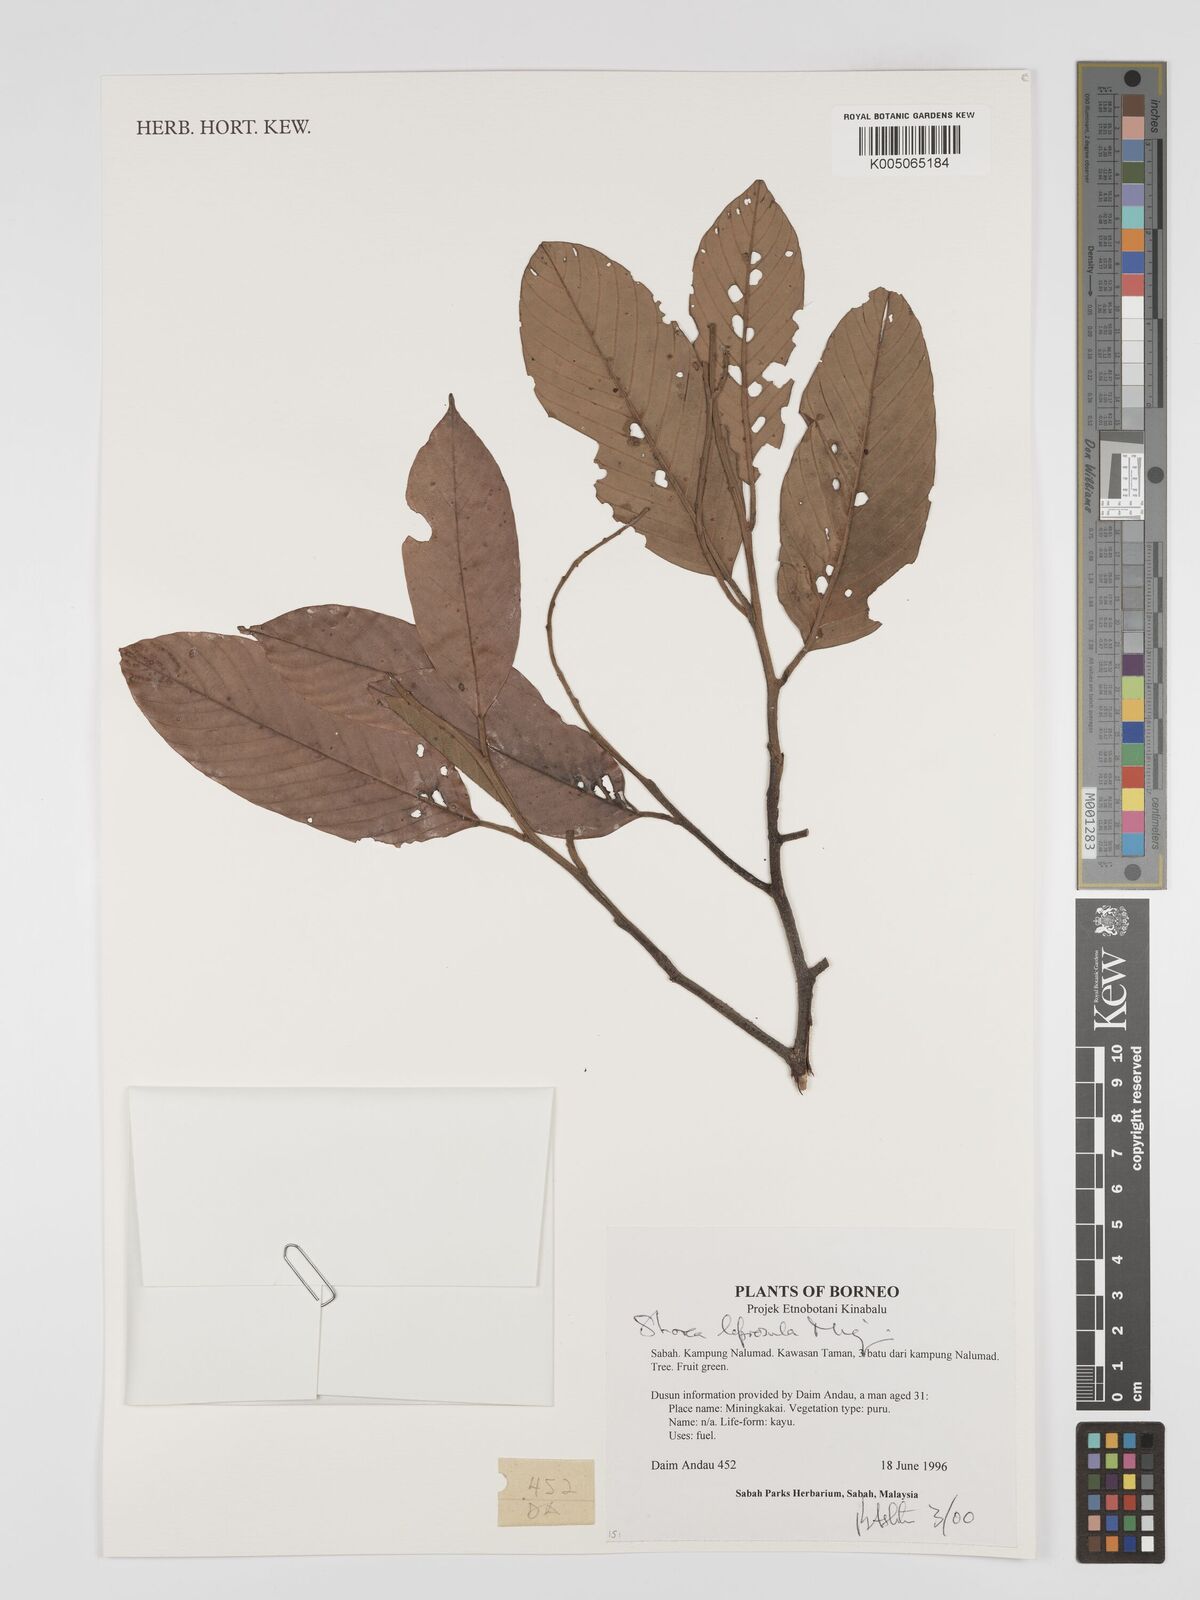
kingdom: Plantae
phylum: Tracheophyta
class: Magnoliopsida
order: Malvales
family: Dipterocarpaceae
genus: Shorea
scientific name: Shorea leprosula
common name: Light red meranti
